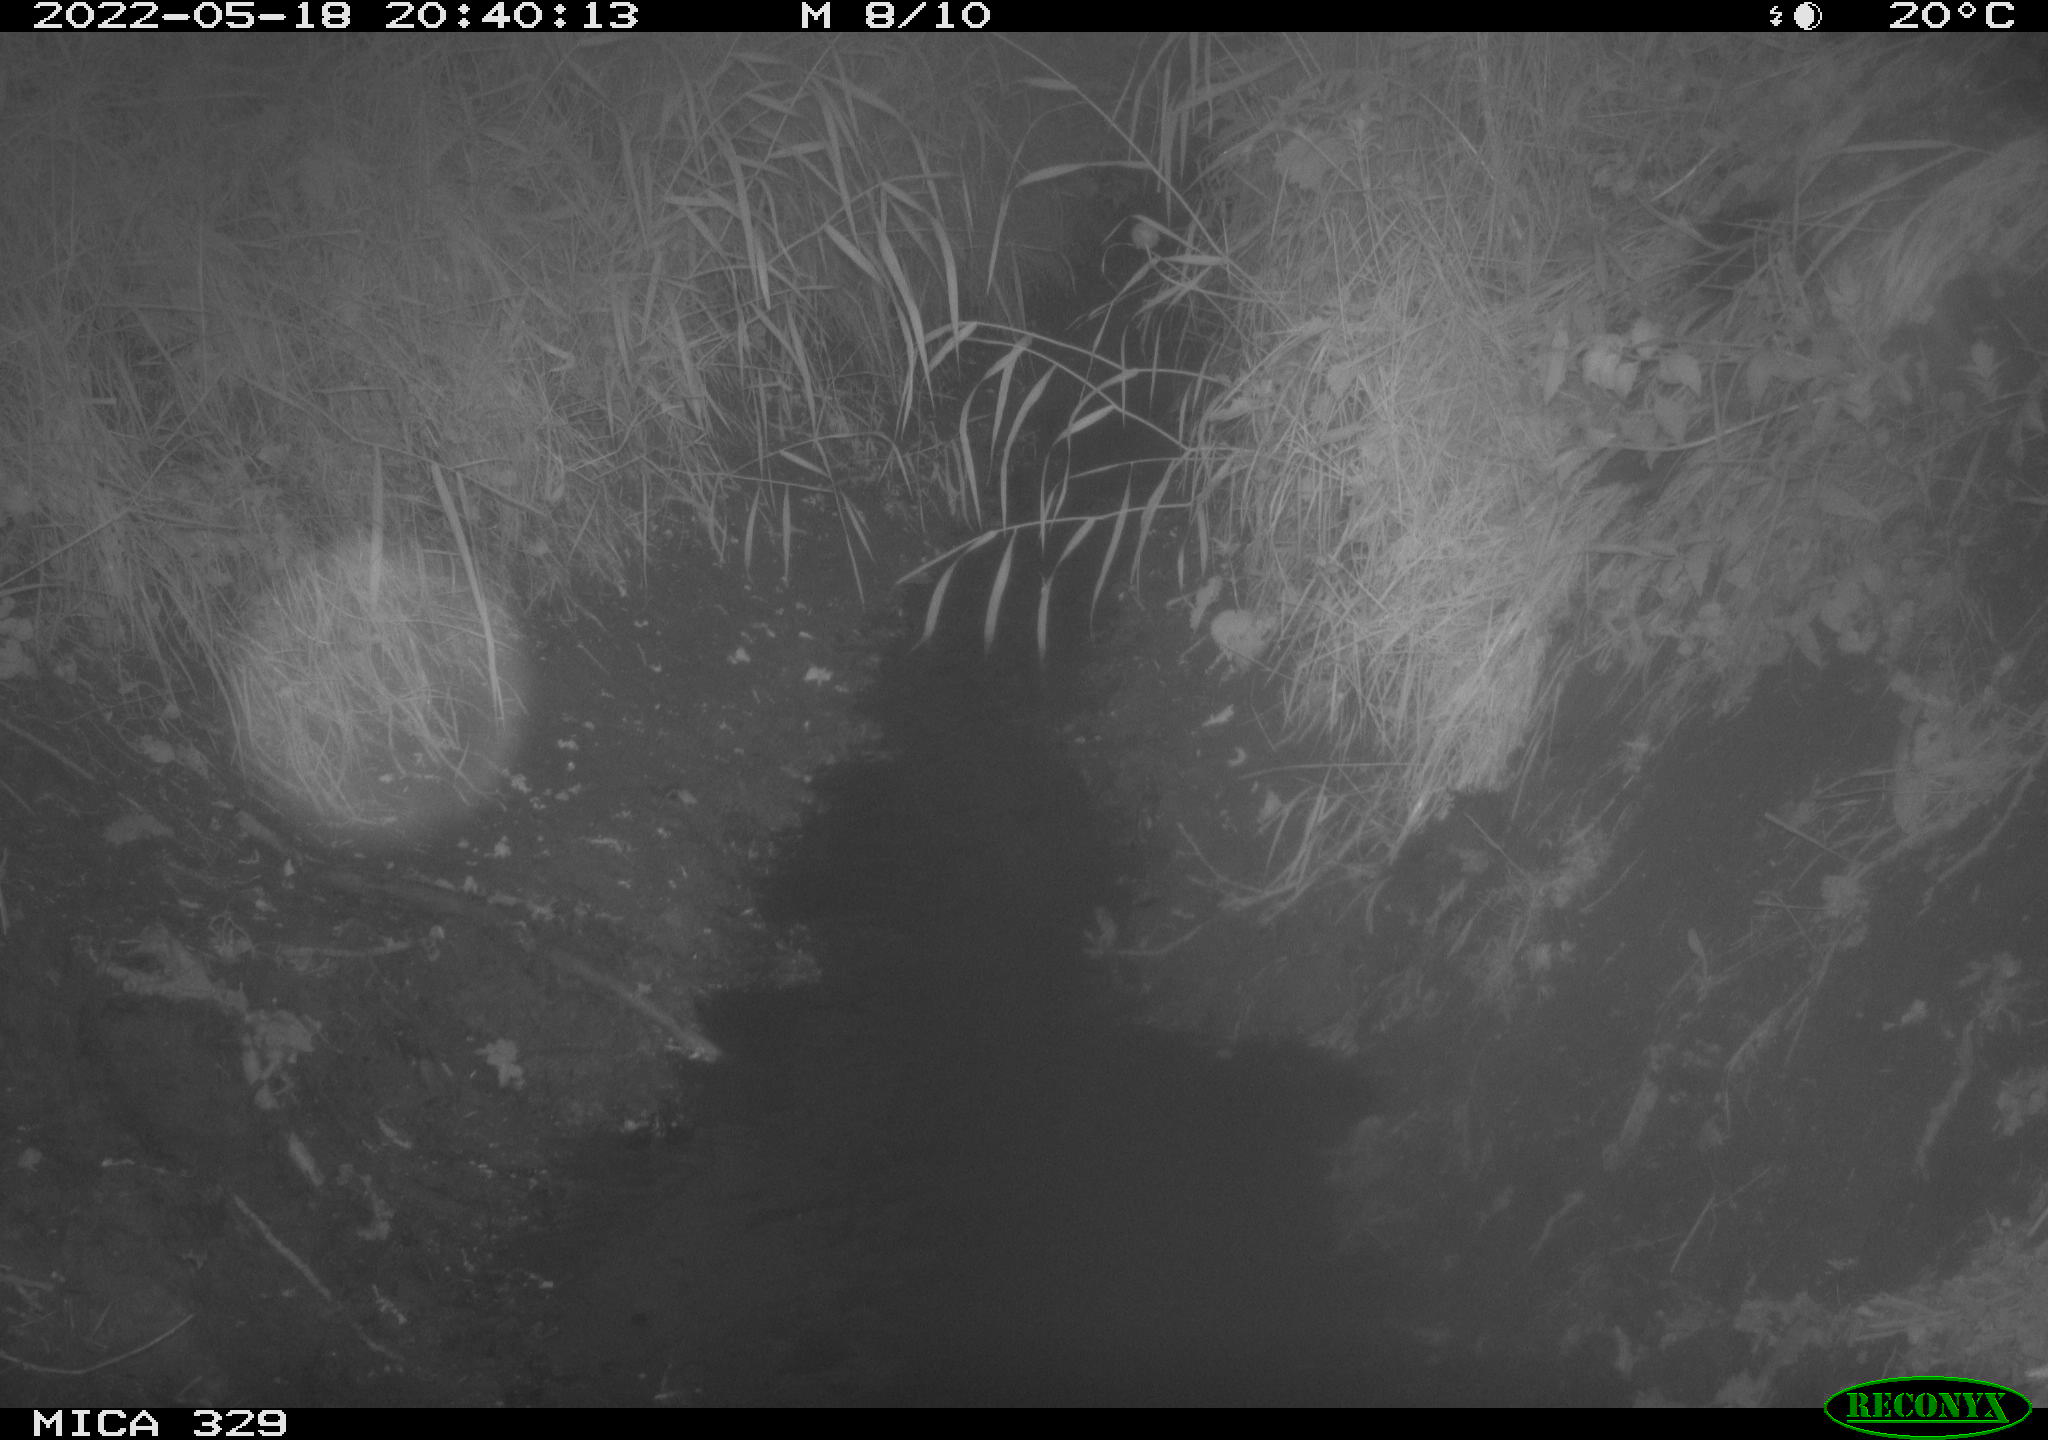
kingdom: Animalia
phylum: Chordata
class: Mammalia
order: Rodentia
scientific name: Rodentia
